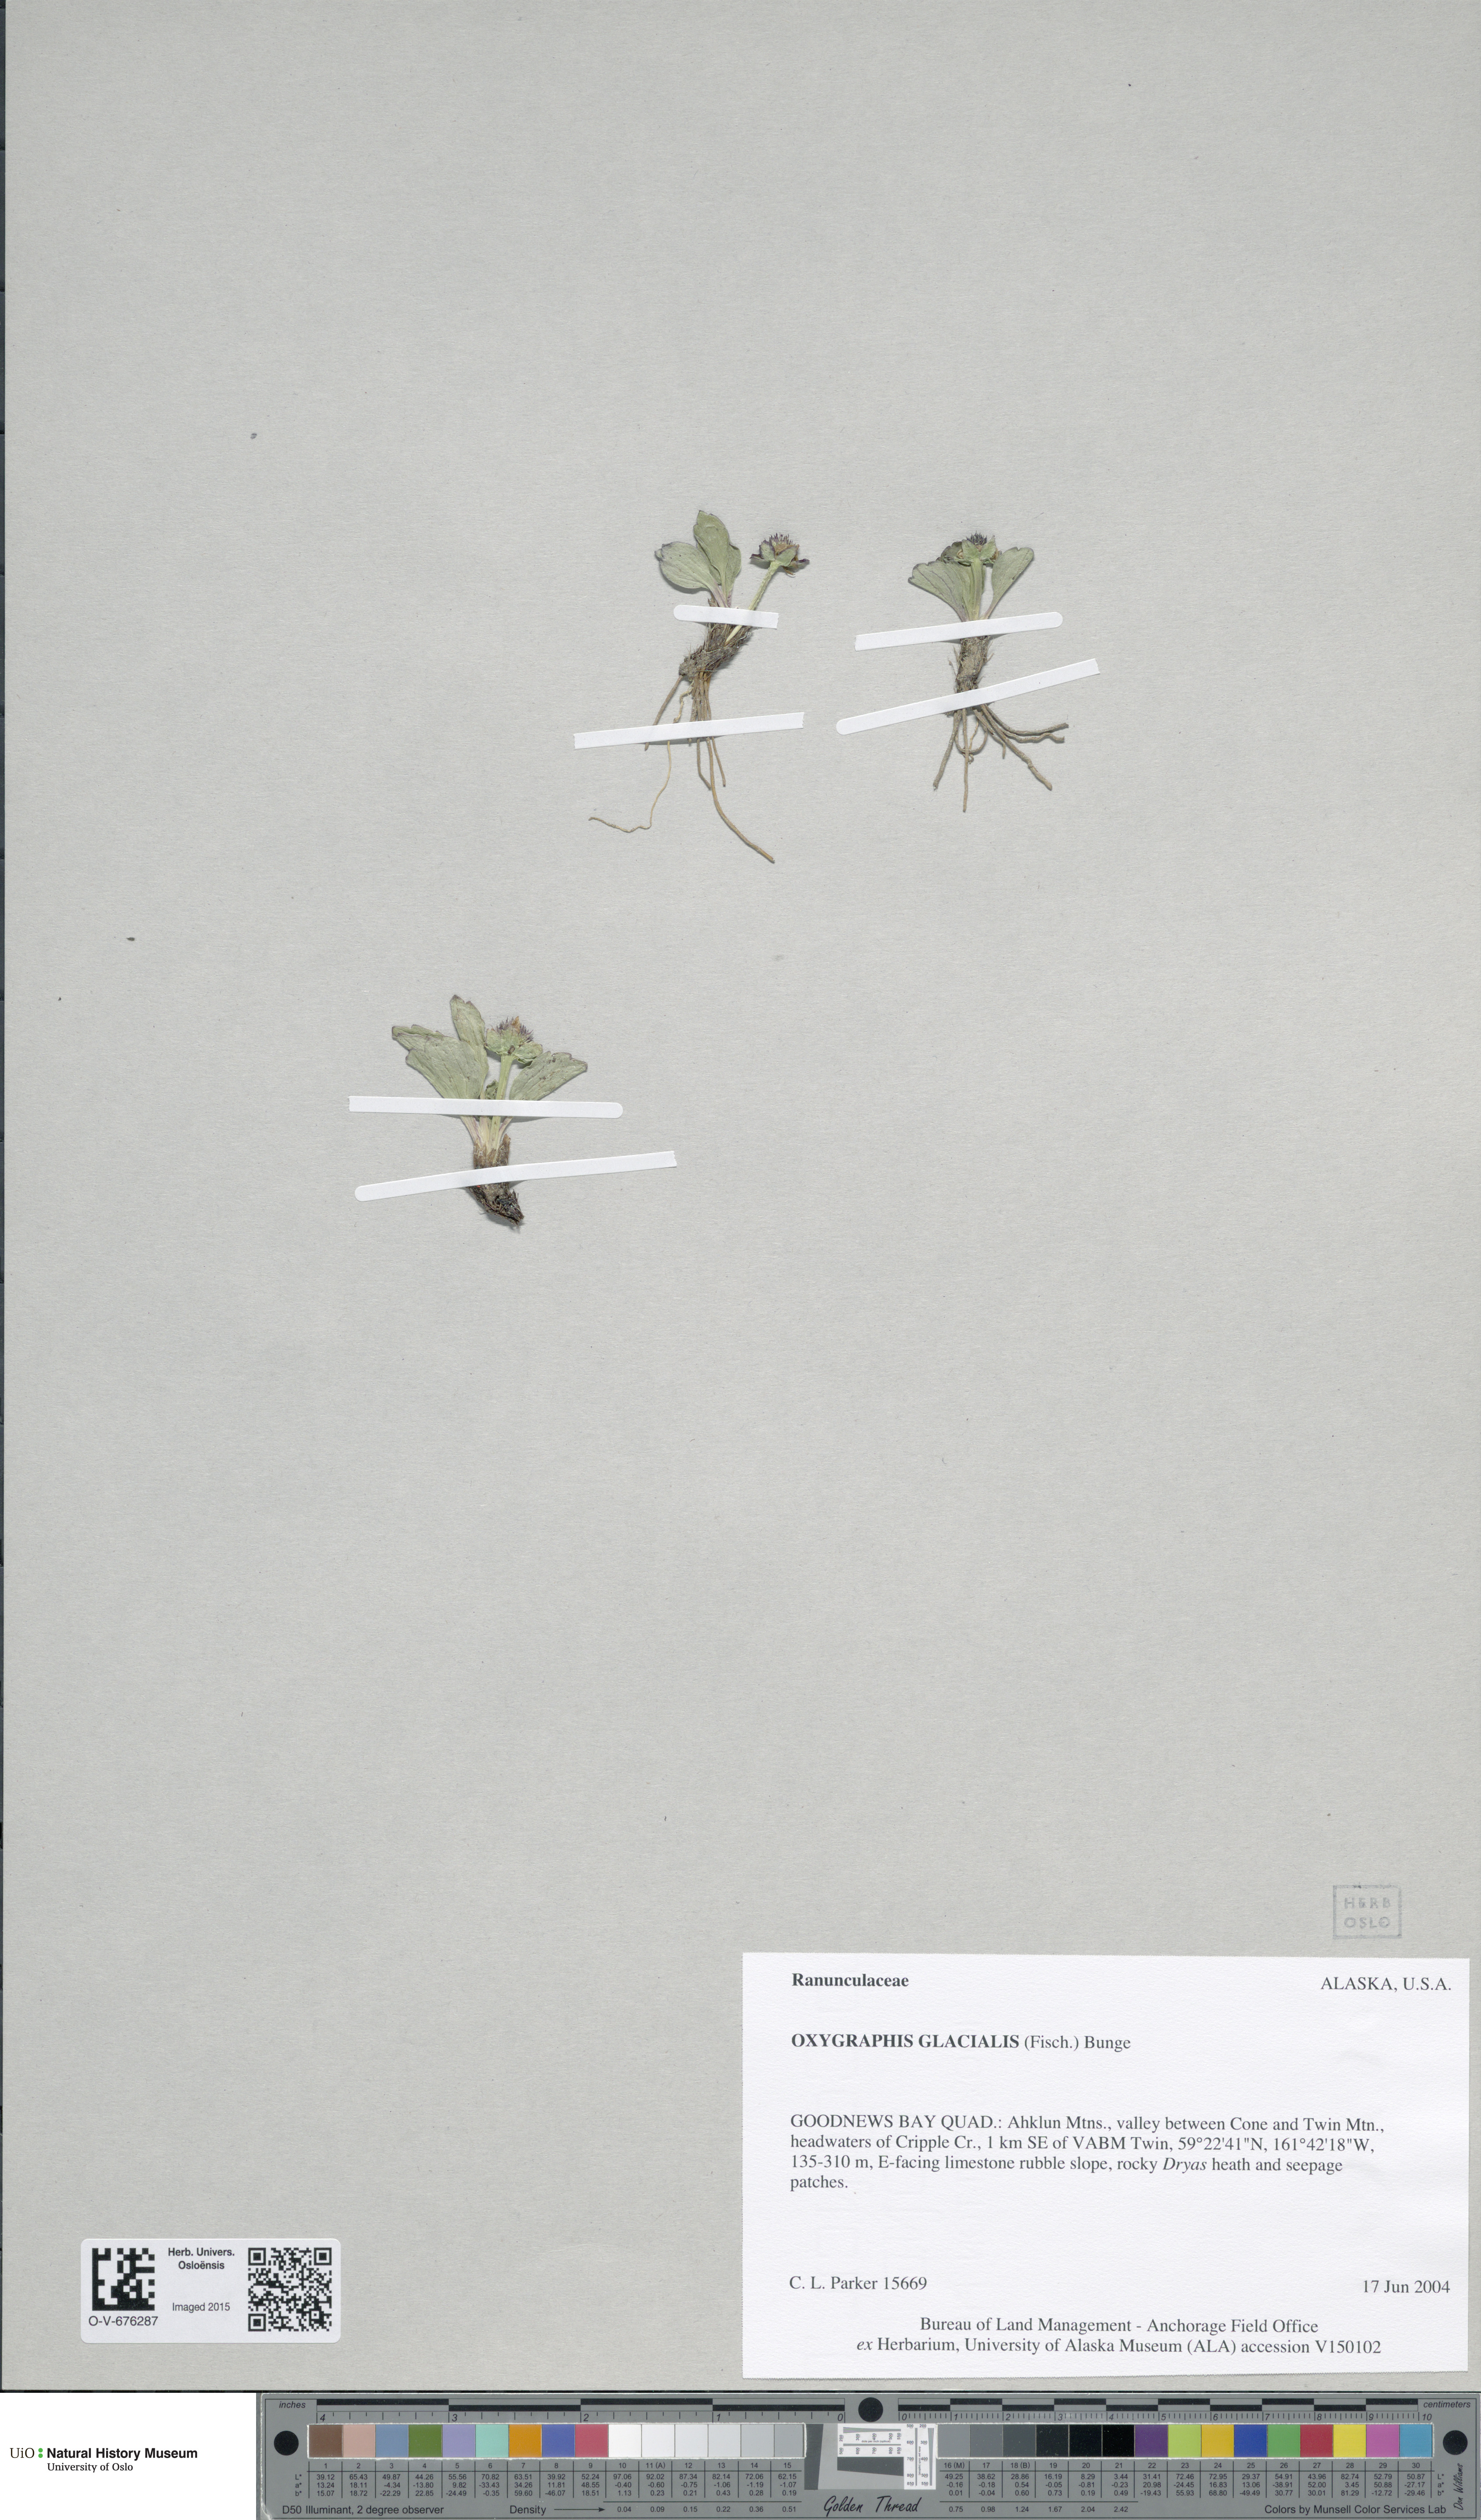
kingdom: Plantae
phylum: Tracheophyta
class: Magnoliopsida
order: Ranunculales
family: Ranunculaceae
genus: Oxygraphis
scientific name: Oxygraphis kamchatica
